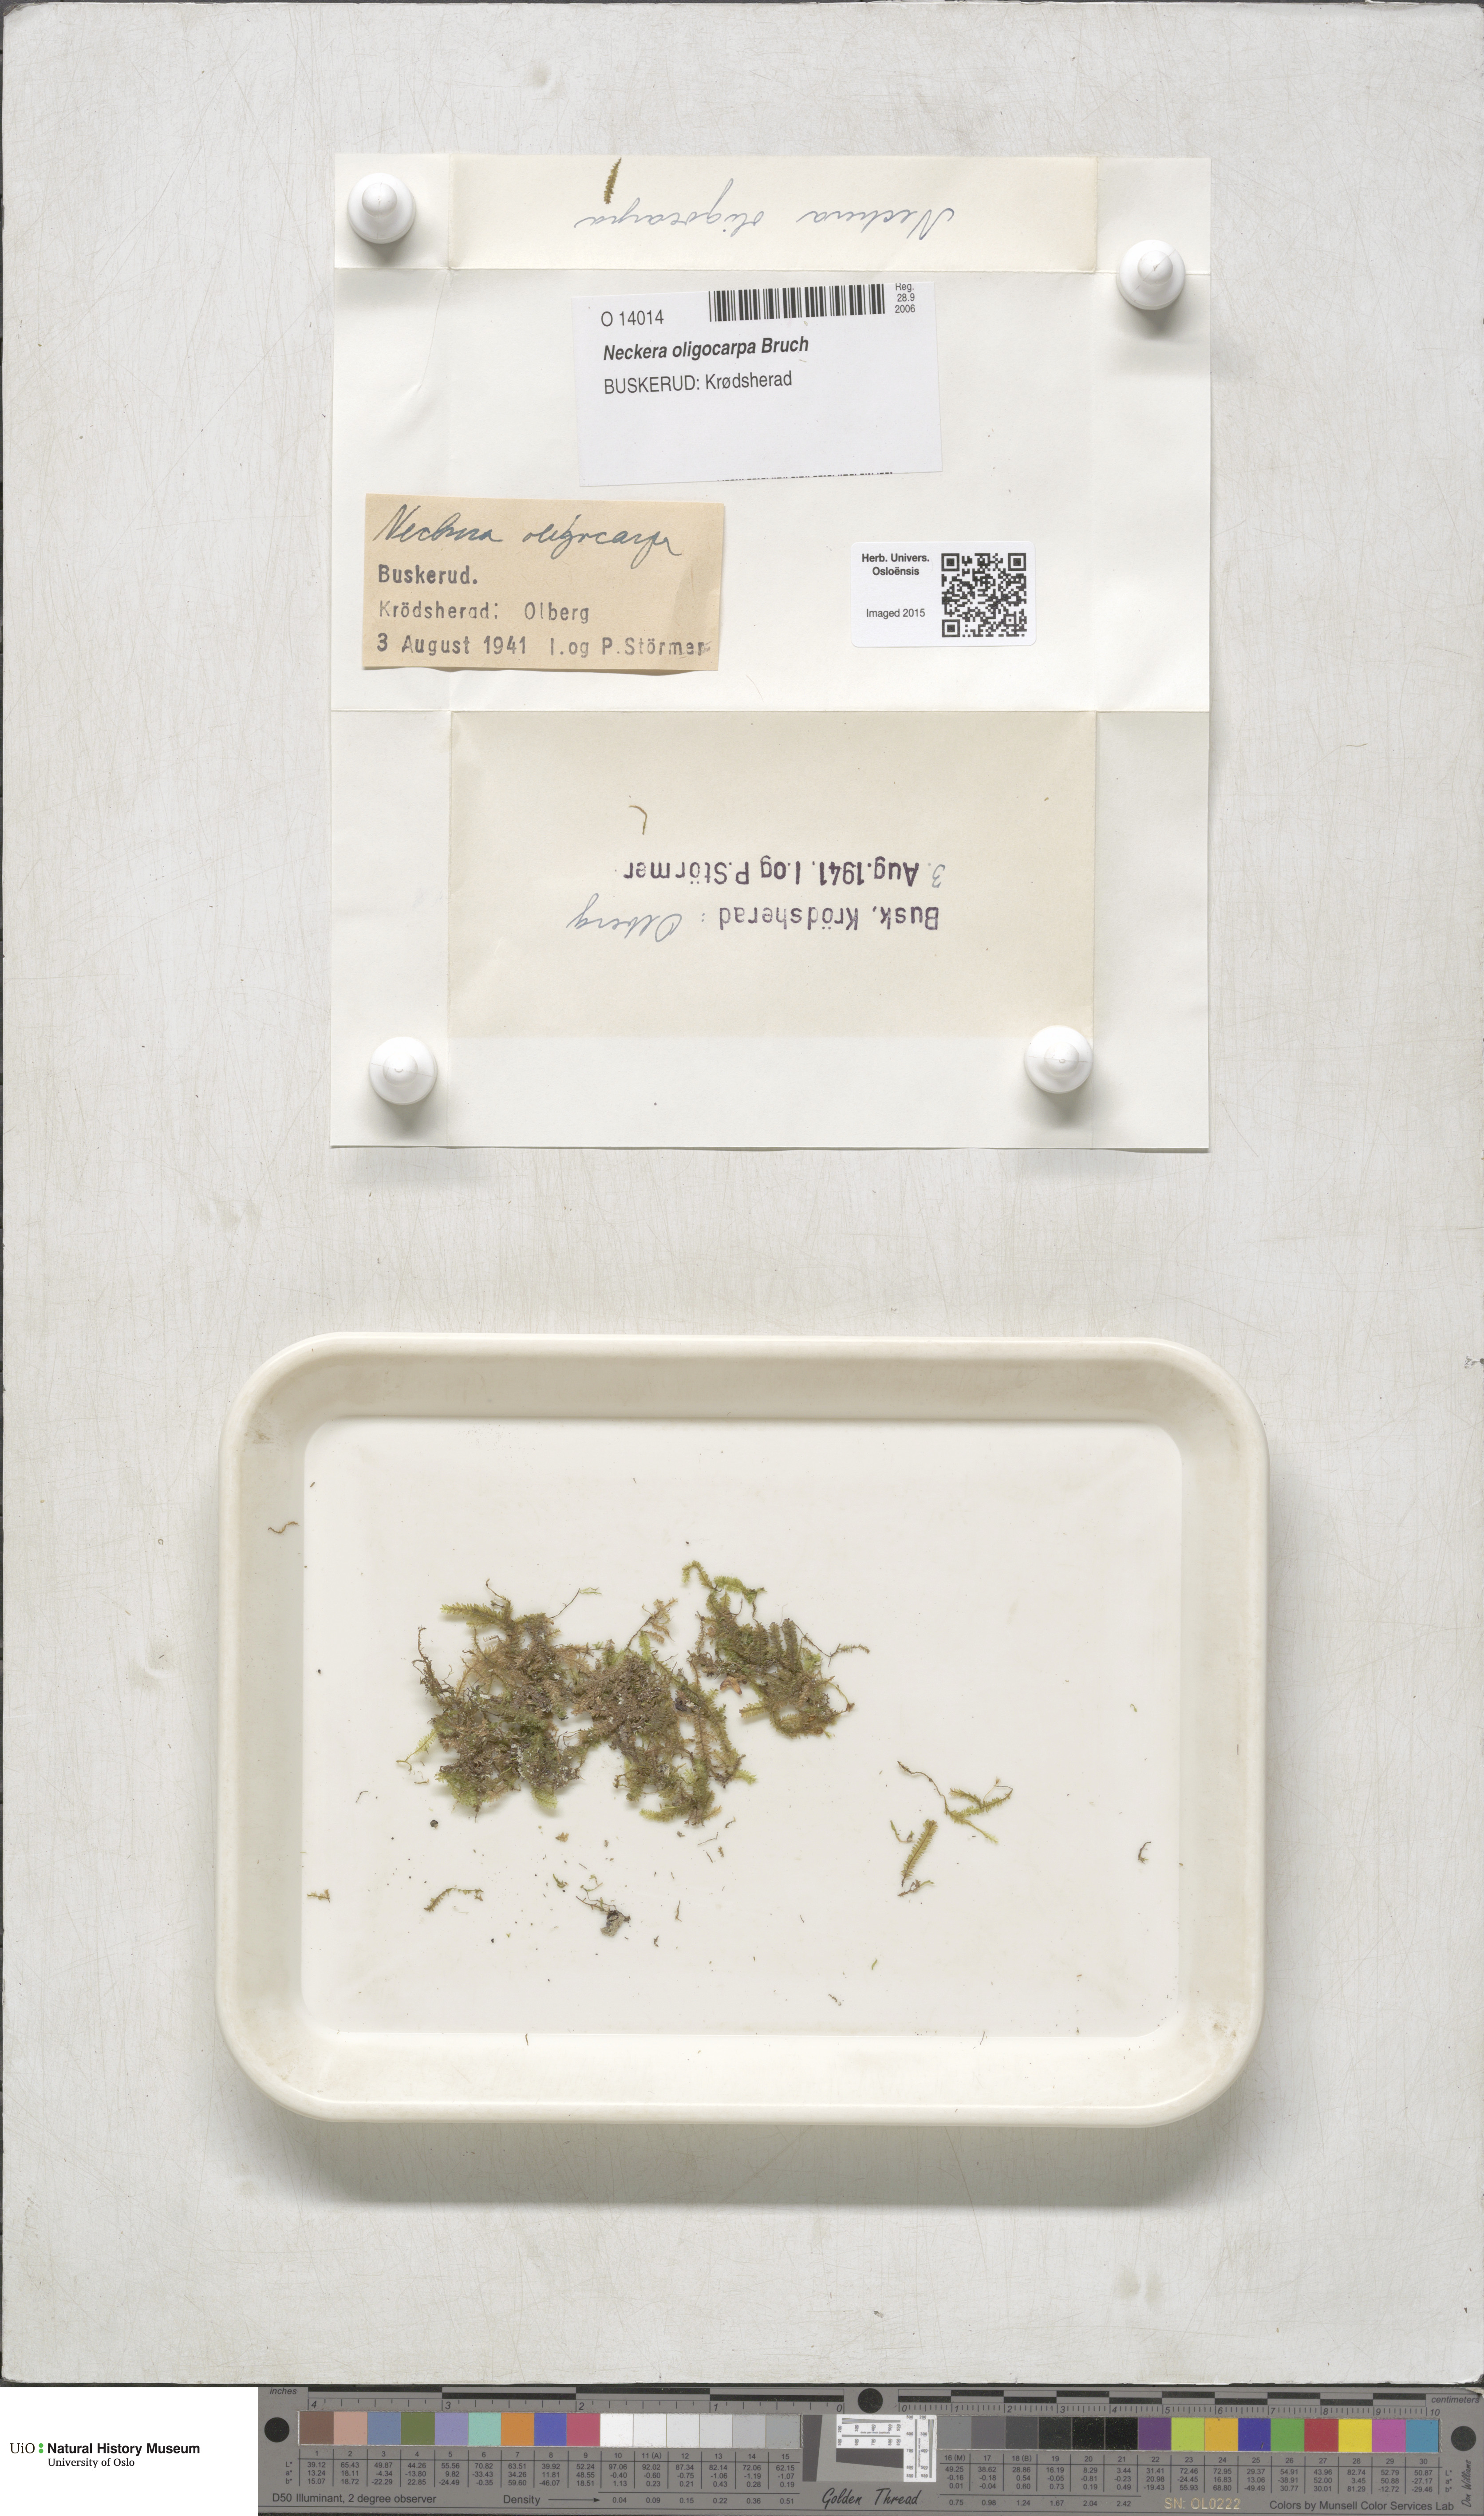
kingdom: Plantae
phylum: Bryophyta
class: Bryopsida
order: Hypnales
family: Neckeraceae
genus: Neckera
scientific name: Neckera oligocarpa
